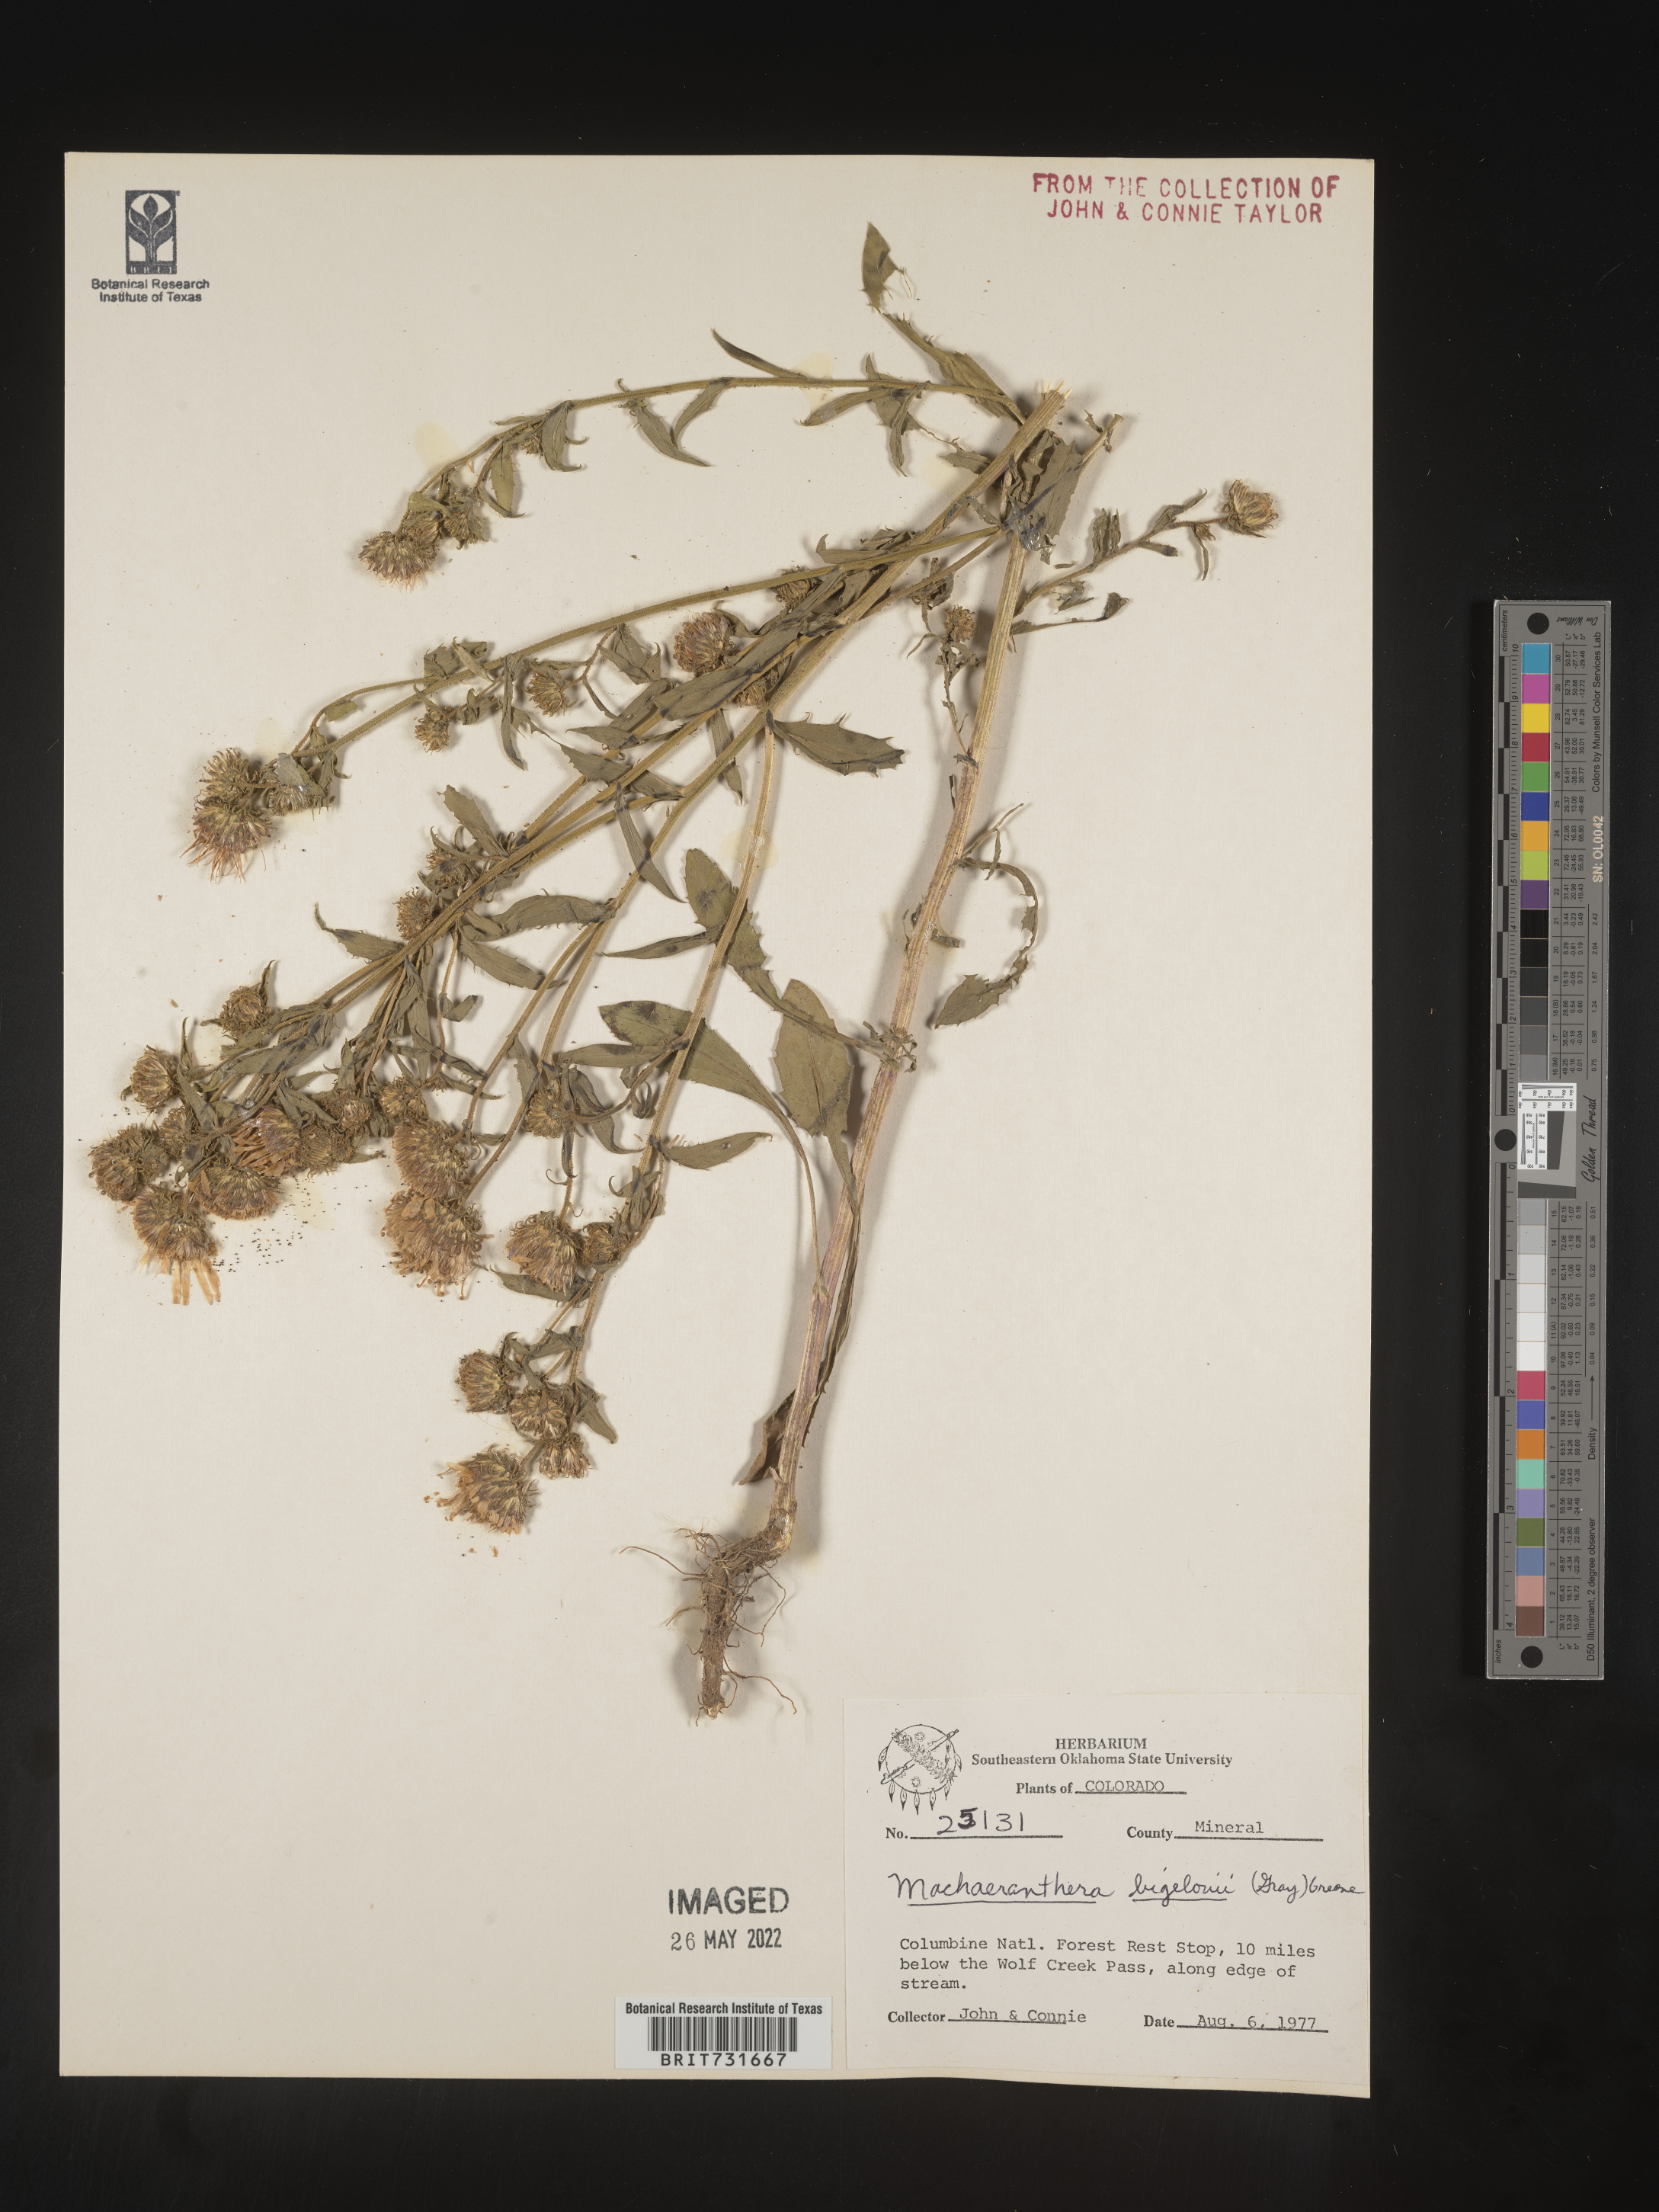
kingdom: Plantae
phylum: Tracheophyta
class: Magnoliopsida
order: Asterales
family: Asteraceae
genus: Dieteria
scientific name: Dieteria bigelovii
